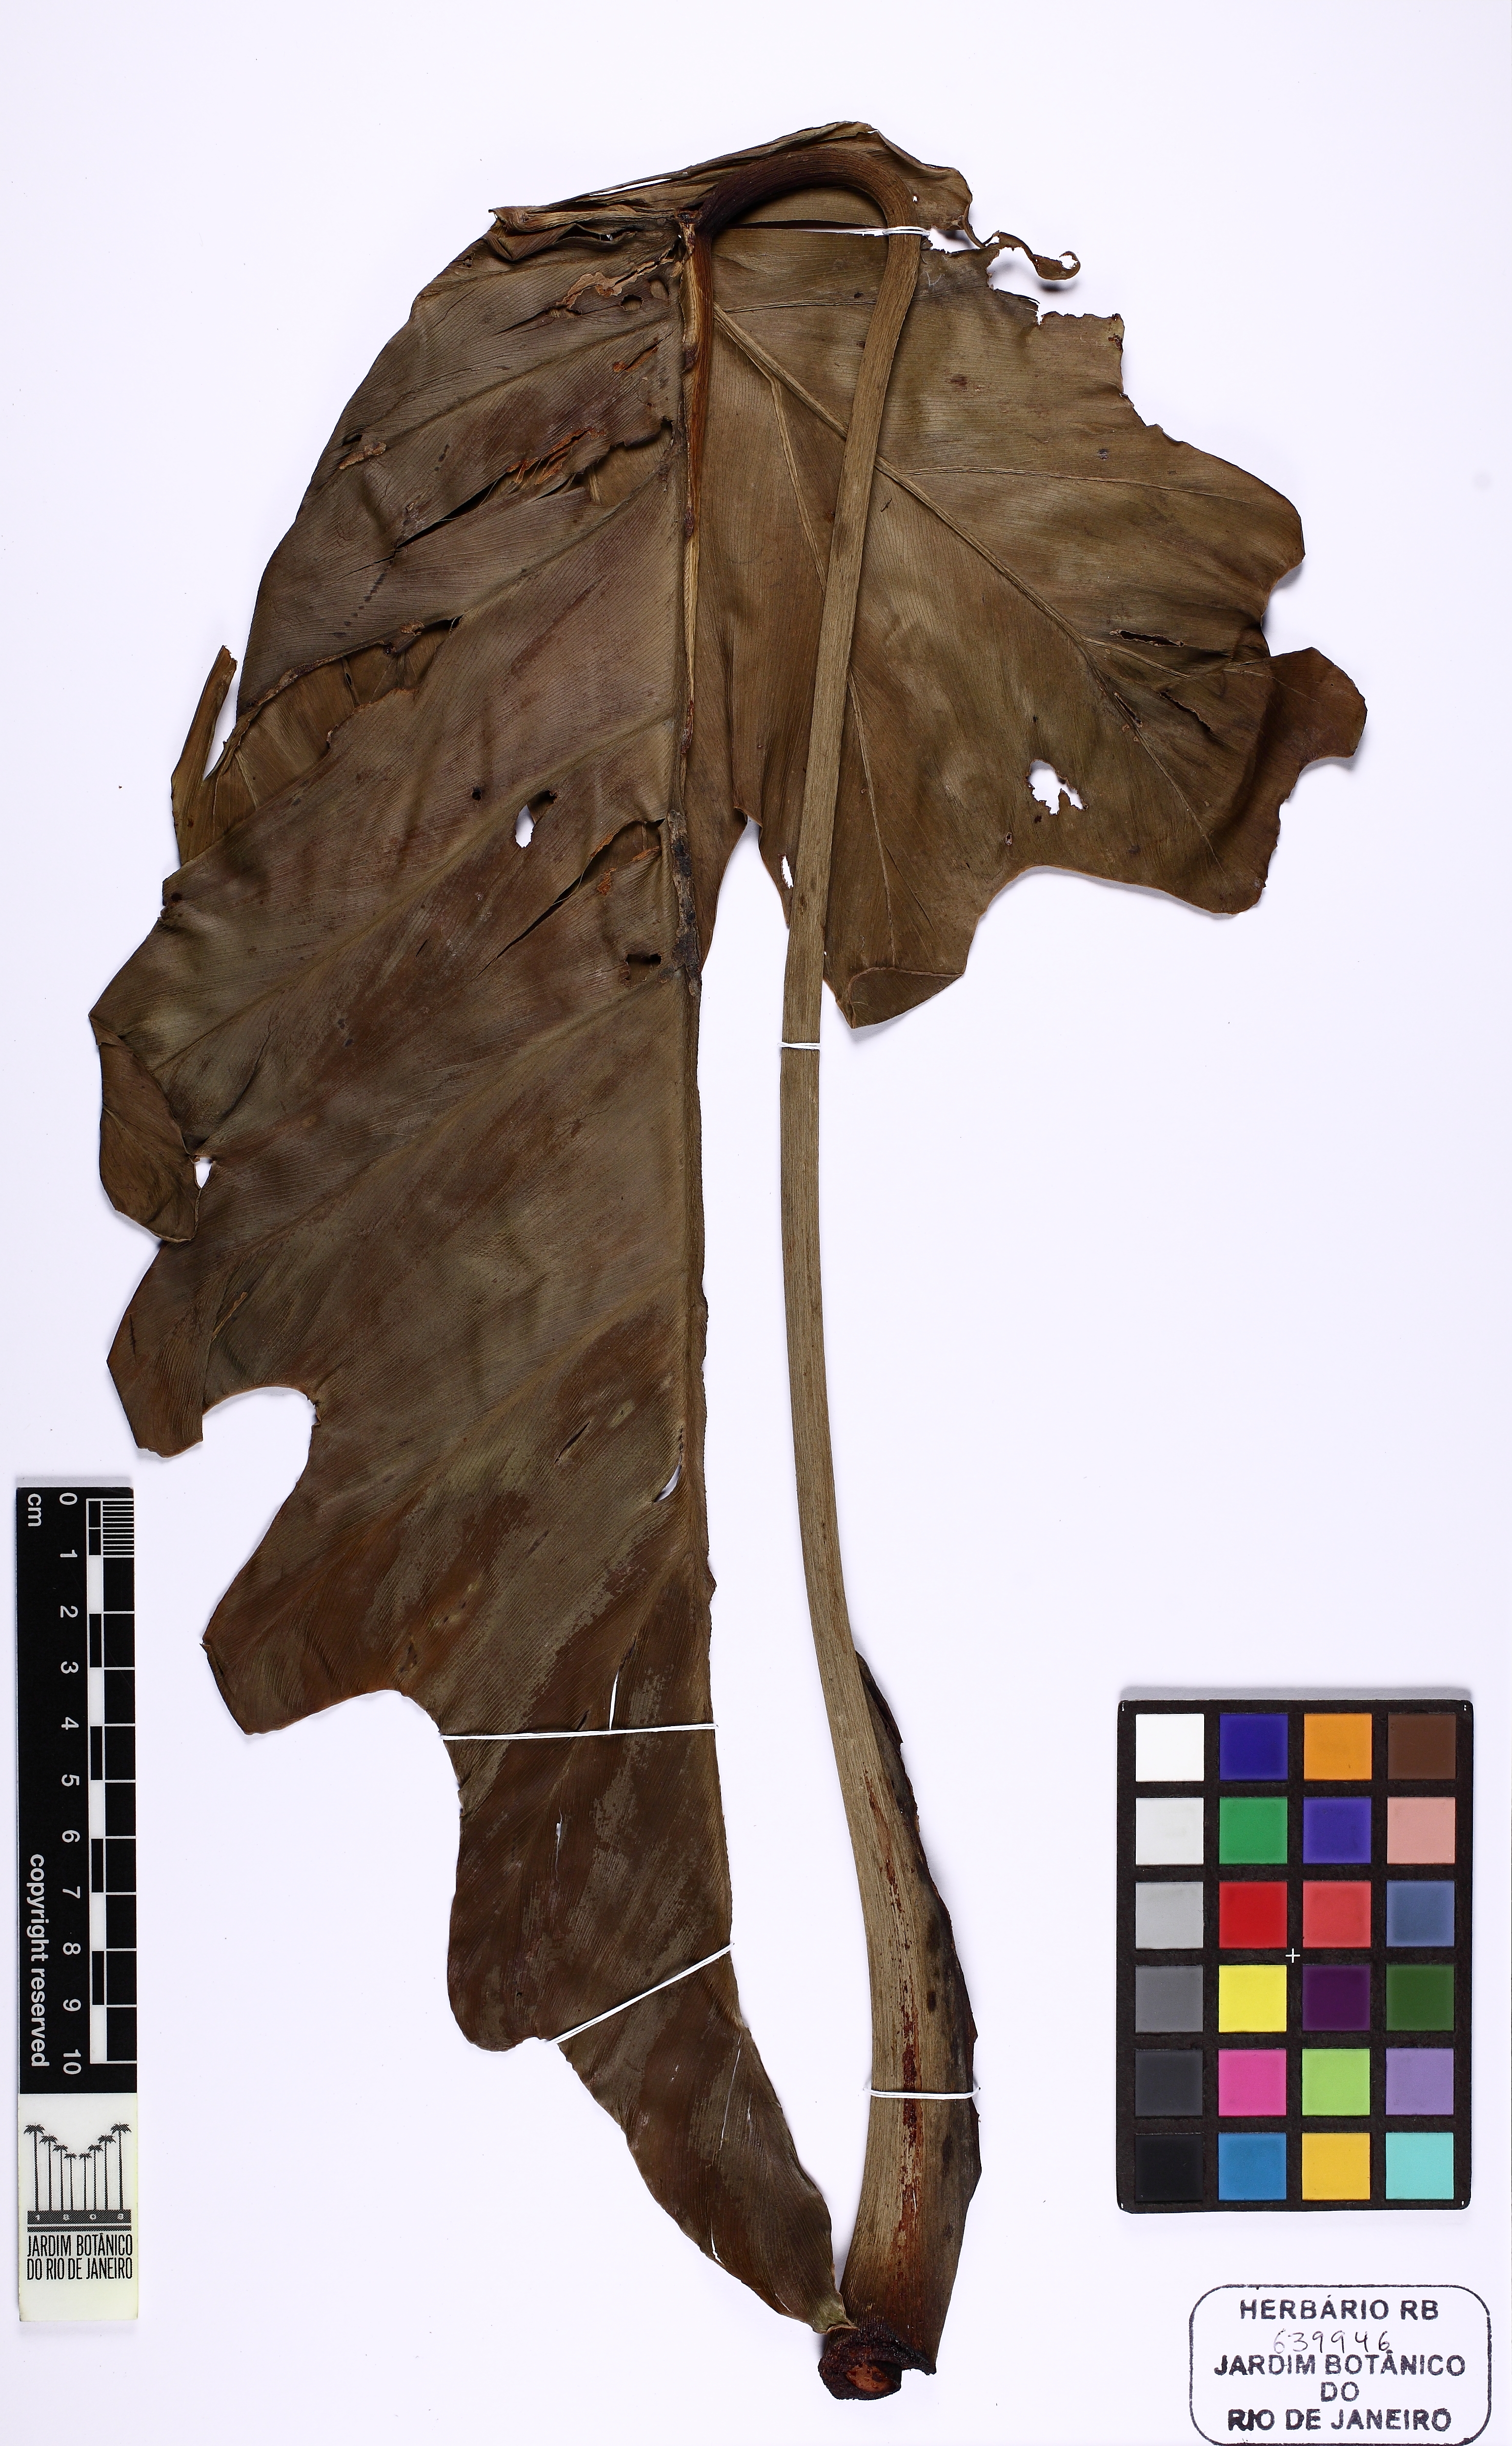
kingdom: Plantae
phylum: Tracheophyta
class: Liliopsida
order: Alismatales
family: Araceae
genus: Thaumatophyllum
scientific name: Thaumatophyllum undulatum
